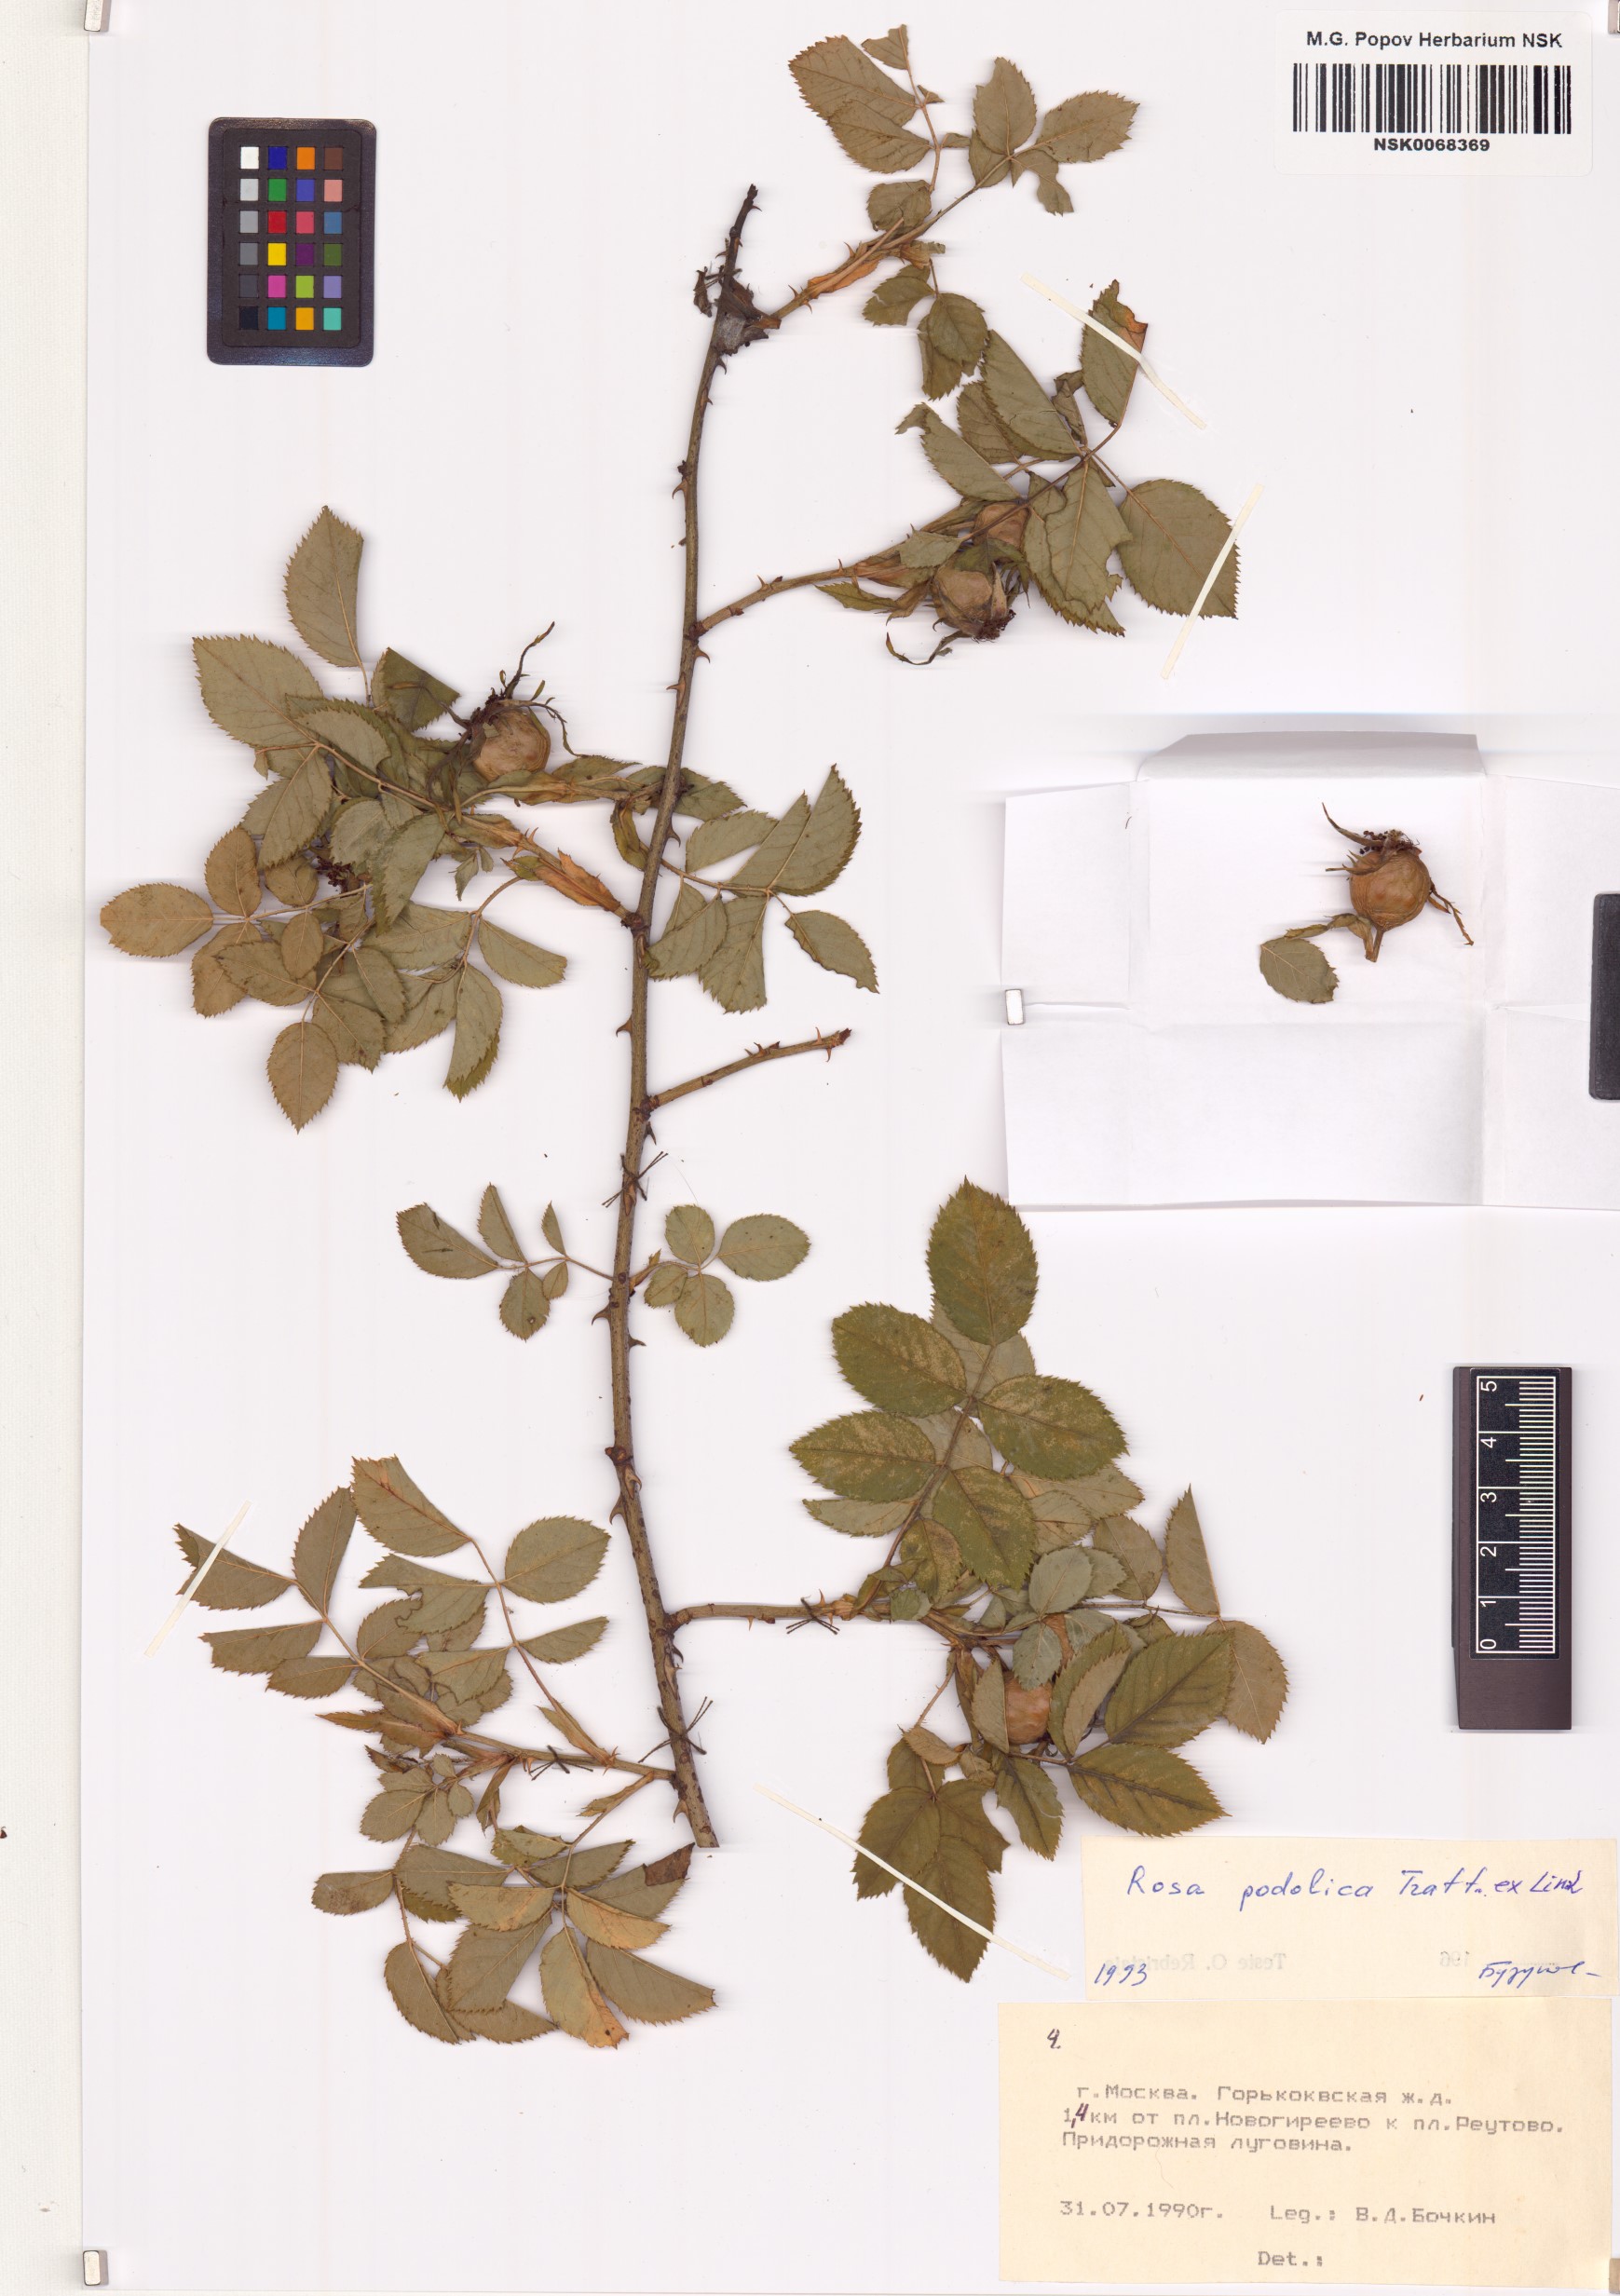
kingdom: Plantae
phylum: Tracheophyta
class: Magnoliopsida
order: Rosales
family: Rosaceae
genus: Rosa
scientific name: Rosa tomentosa
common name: Downy rose
